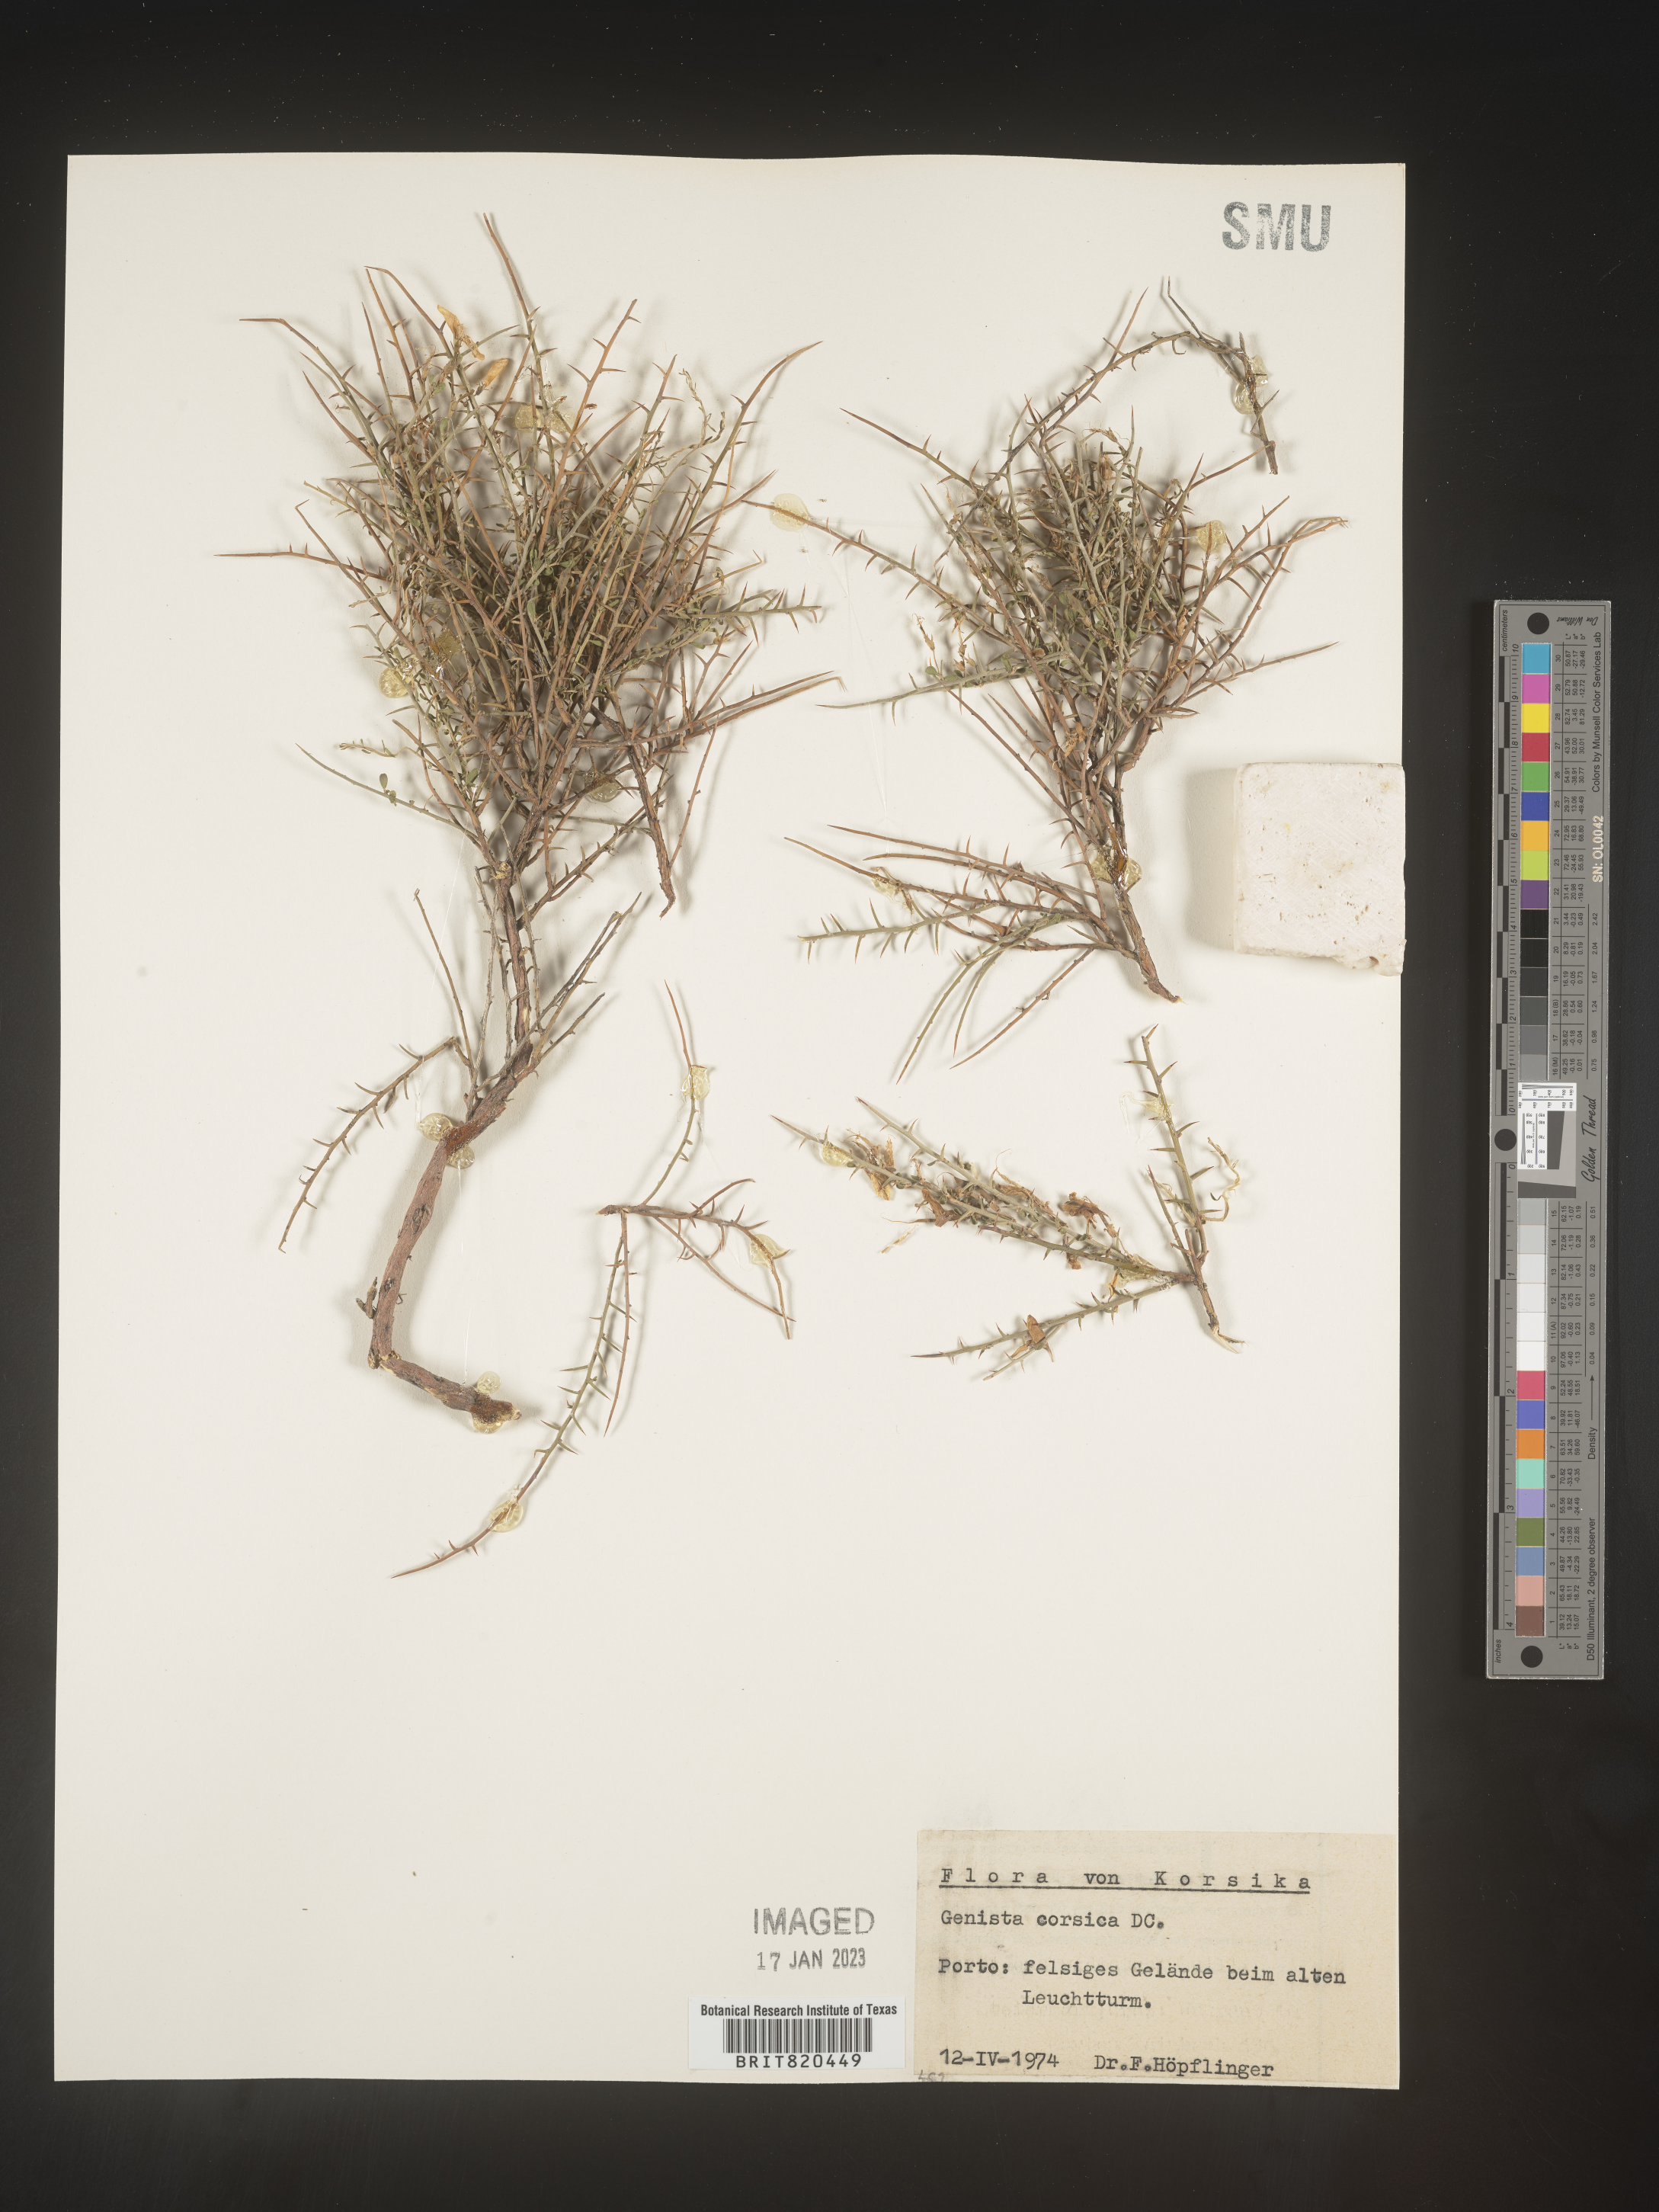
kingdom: Plantae
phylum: Tracheophyta
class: Magnoliopsida
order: Fabales
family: Fabaceae
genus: Genista
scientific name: Genista
